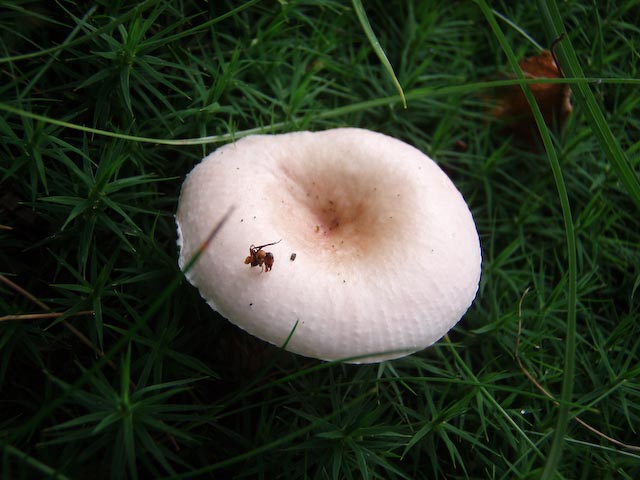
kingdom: Fungi
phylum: Basidiomycota
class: Agaricomycetes
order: Russulales
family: Russulaceae
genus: Russula
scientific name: Russula betularum
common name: bleg gift-skørhat
